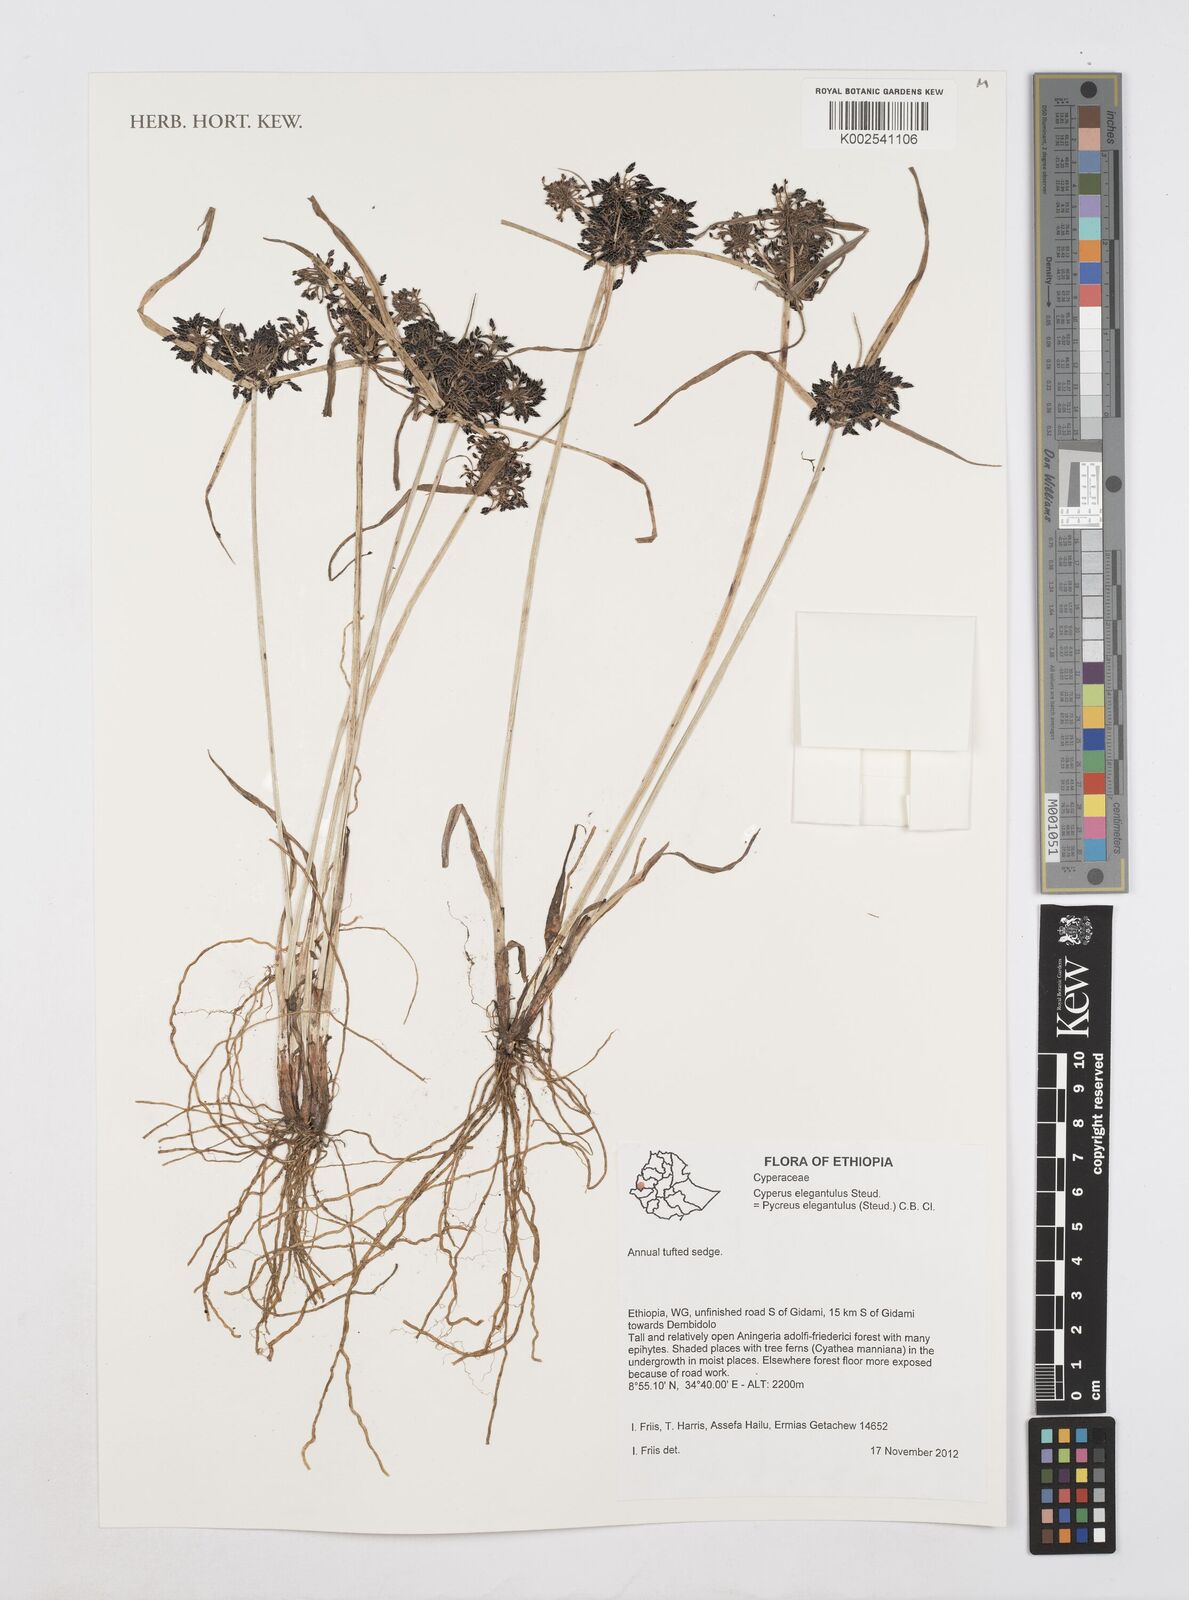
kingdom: Plantae
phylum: Tracheophyta
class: Liliopsida
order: Poales
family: Cyperaceae
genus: Cyperus
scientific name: Cyperus elegantulus
